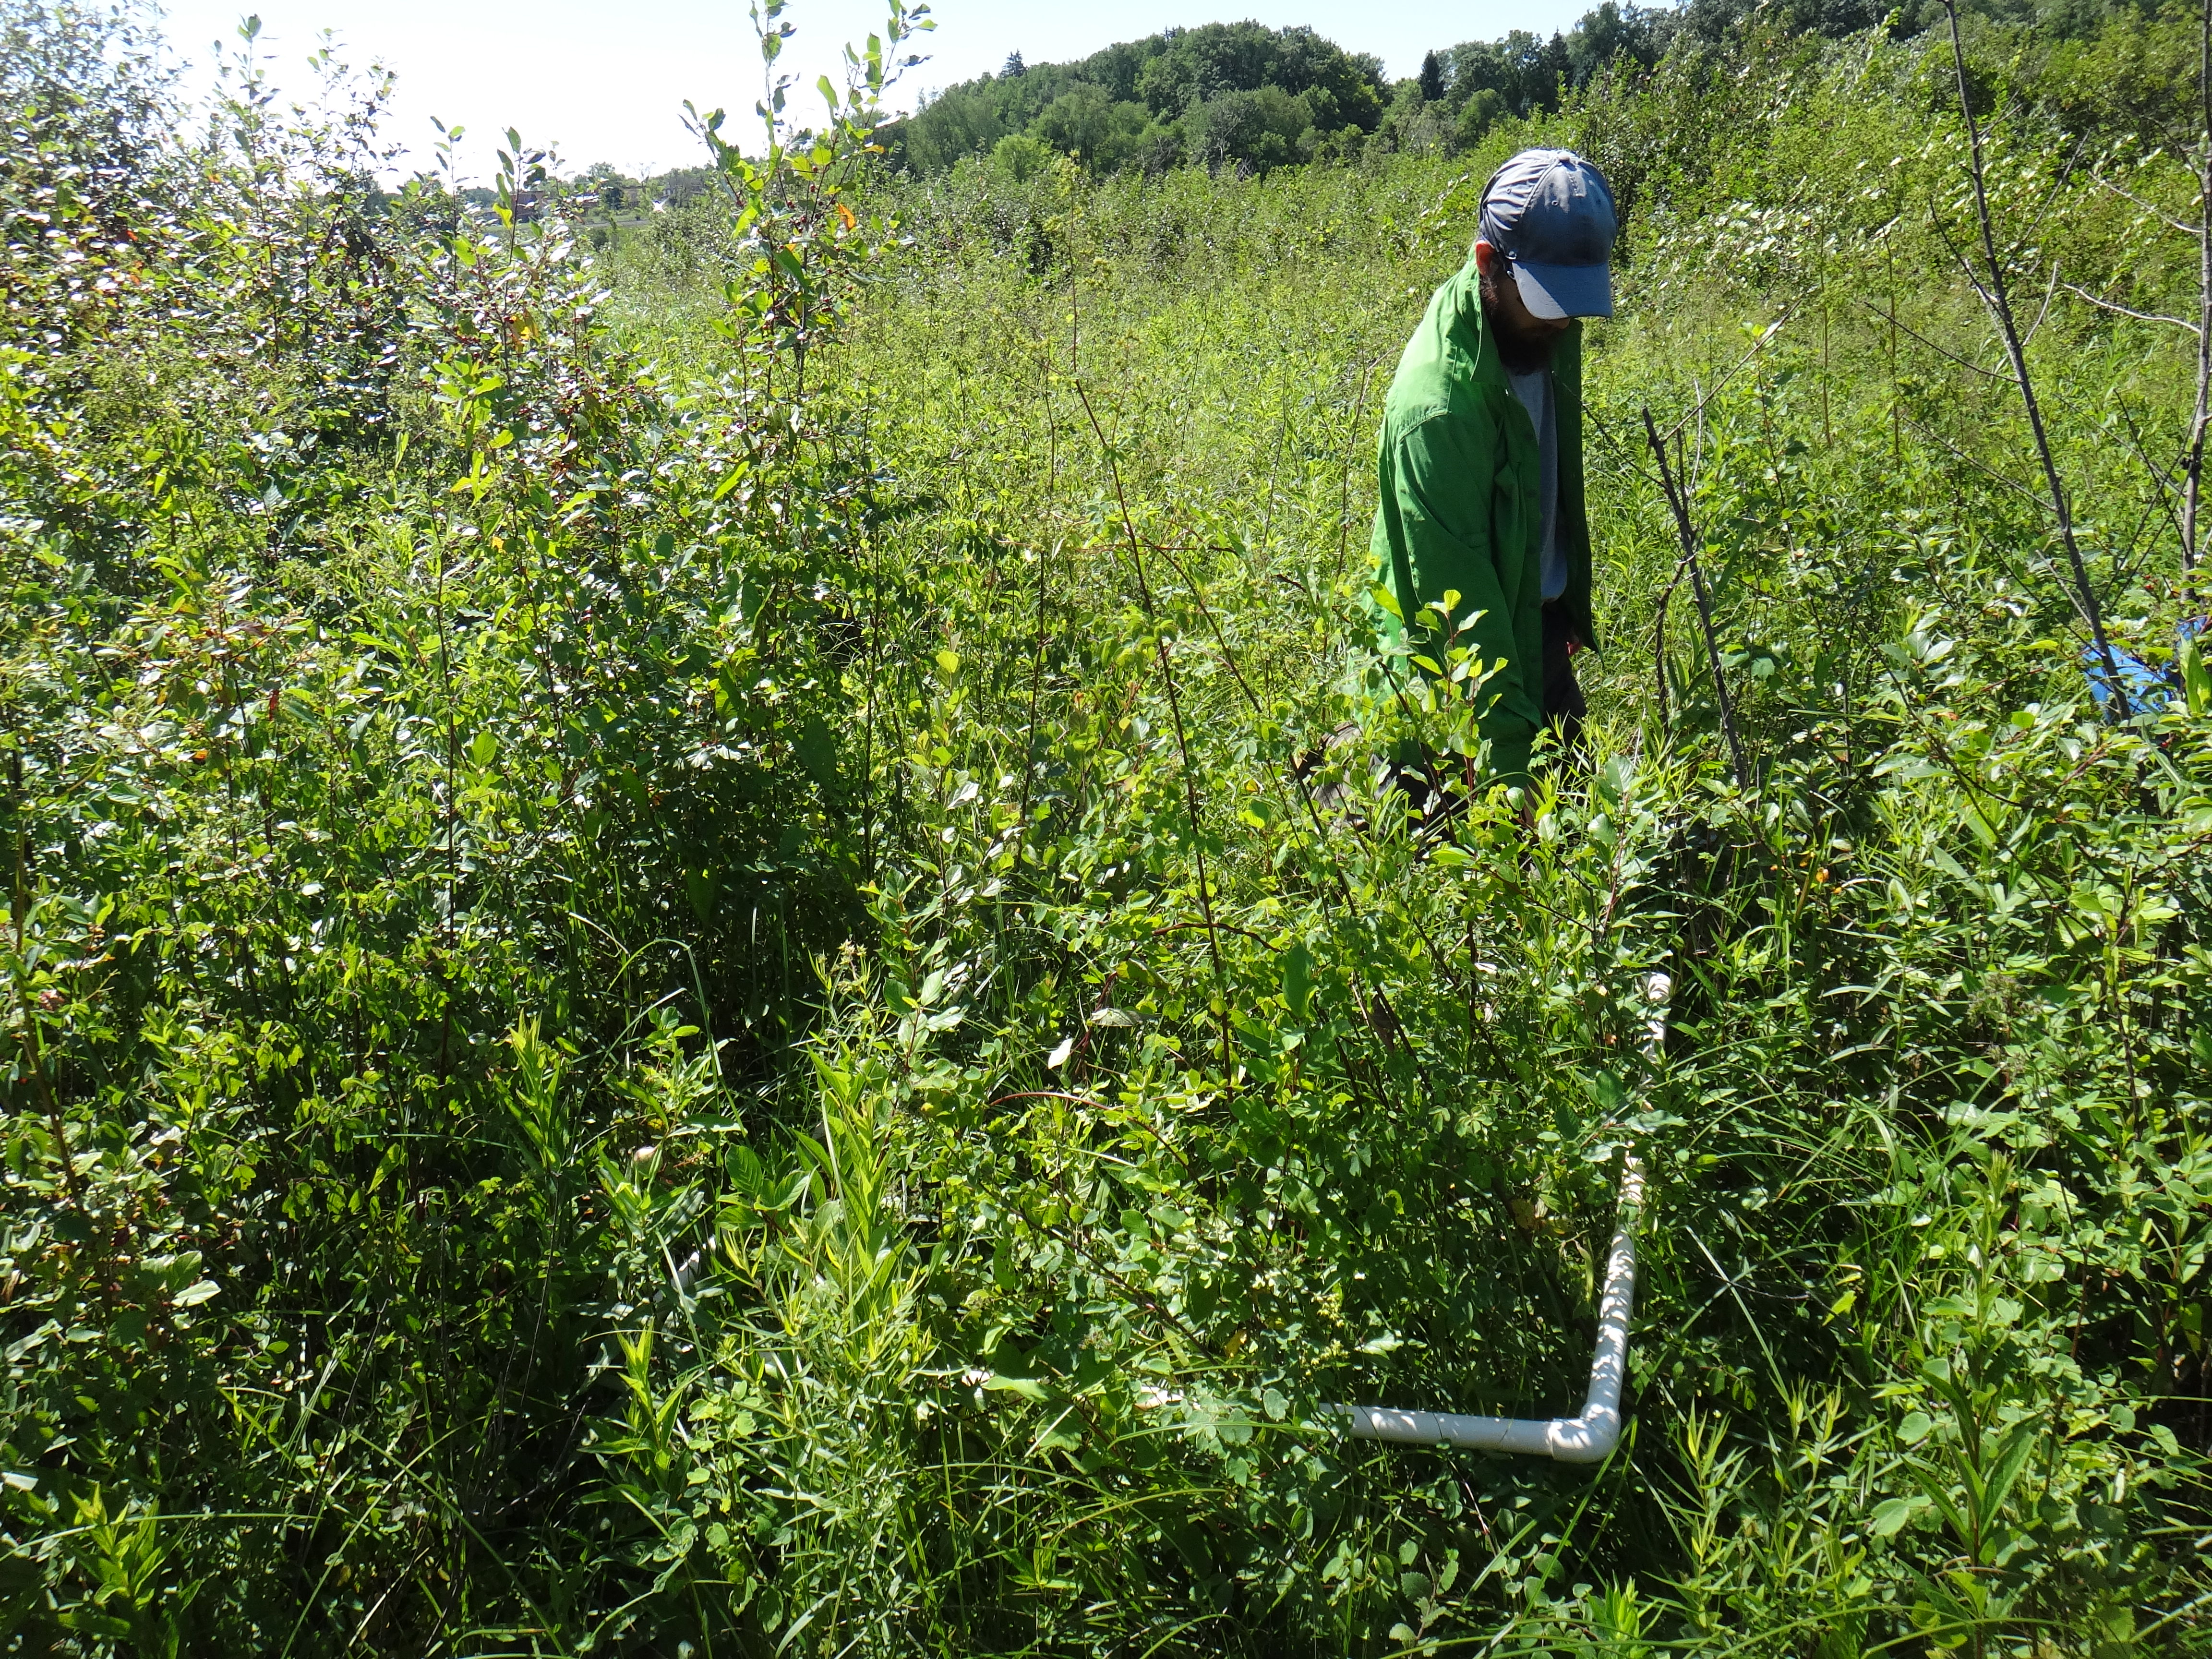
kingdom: Plantae
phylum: Tracheophyta
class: Magnoliopsida
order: Asterales
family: Asteraceae
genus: Solidago
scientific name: Solidago canadensis
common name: Canada goldenrod
